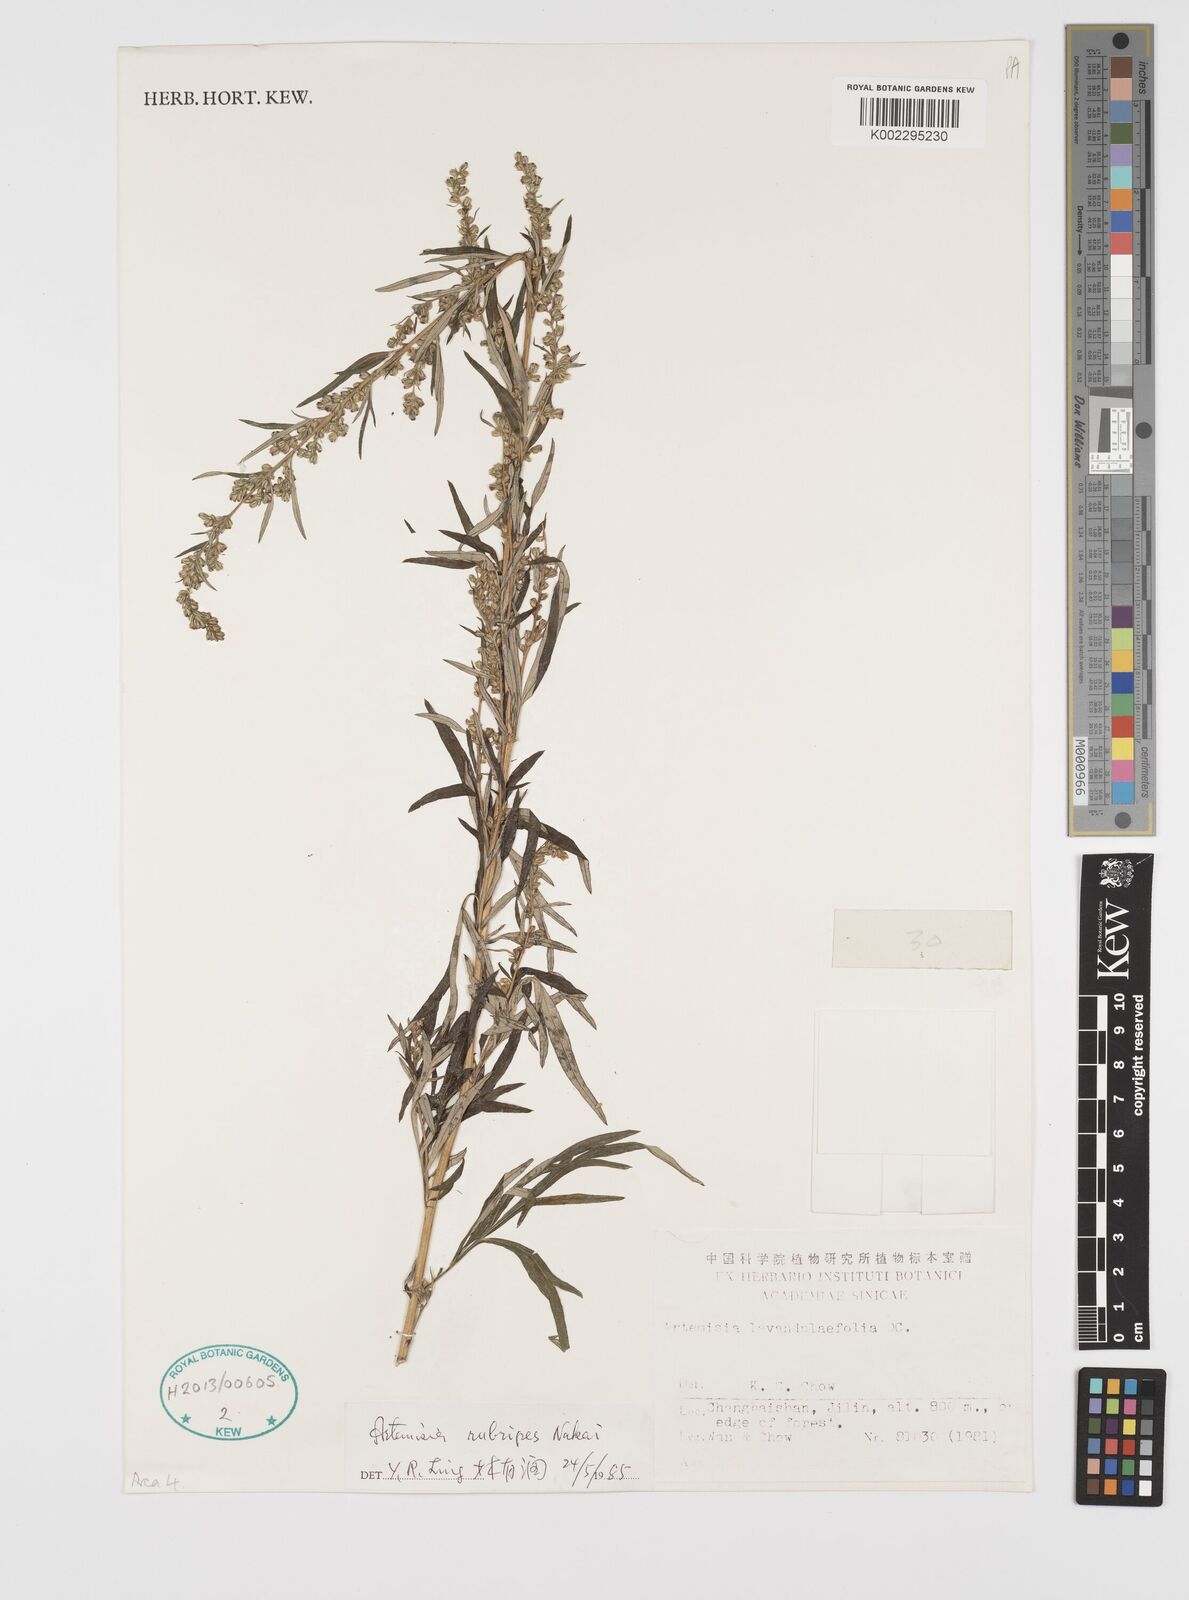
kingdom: Plantae
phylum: Tracheophyta
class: Magnoliopsida
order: Asterales
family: Asteraceae
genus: Artemisia
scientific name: Artemisia rubripes
